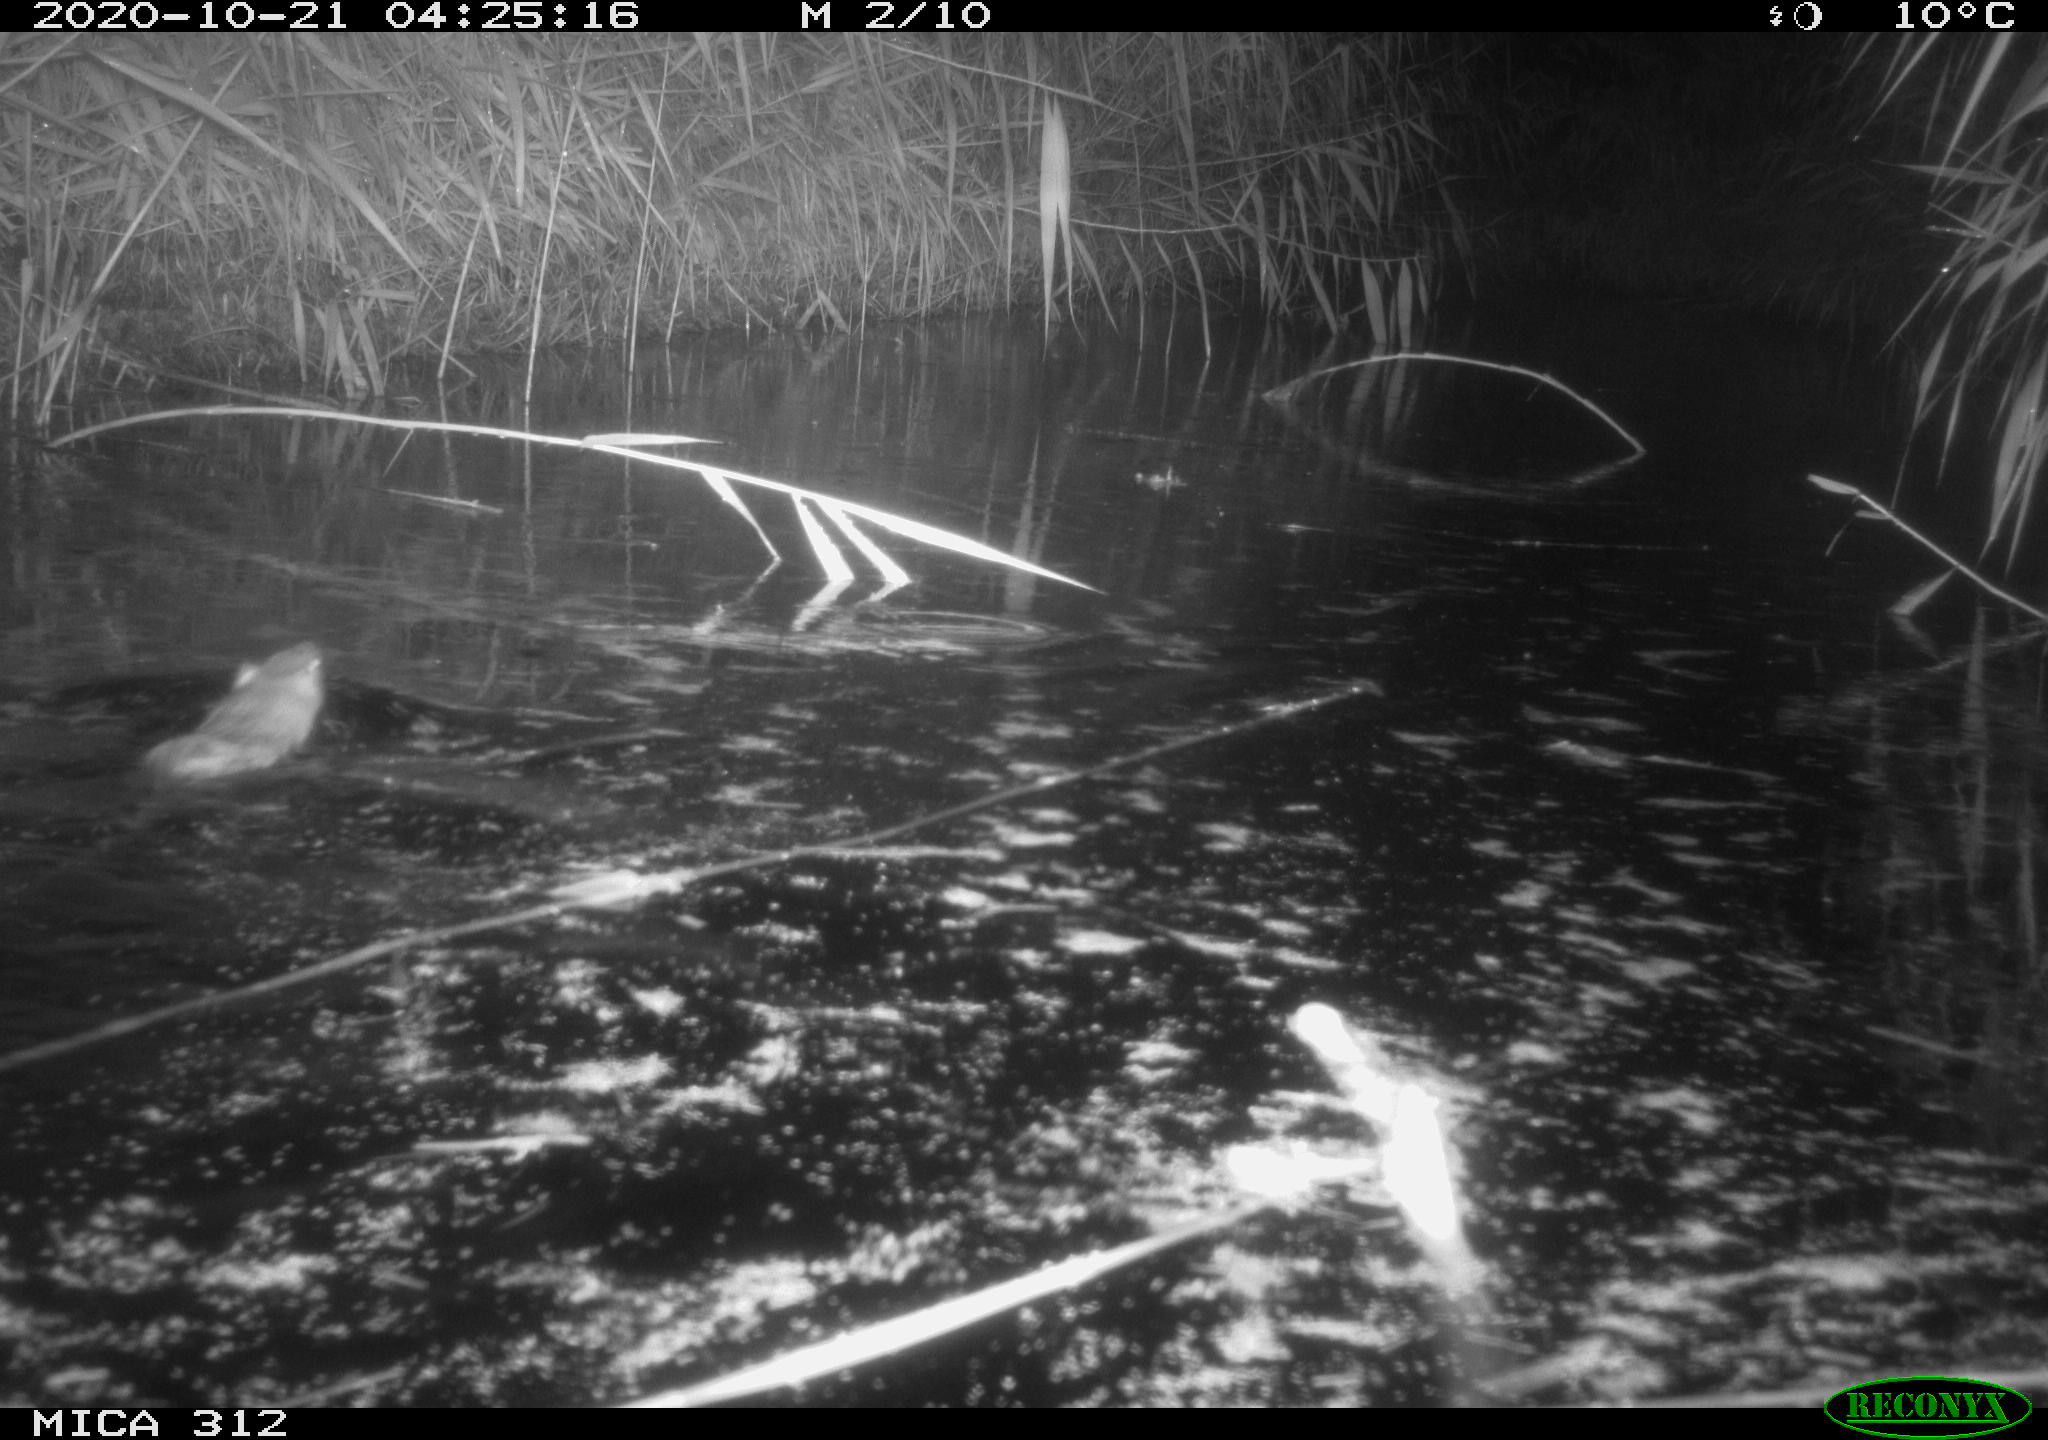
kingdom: Animalia
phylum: Chordata
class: Mammalia
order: Rodentia
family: Muridae
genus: Rattus
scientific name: Rattus norvegicus
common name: Brown rat
